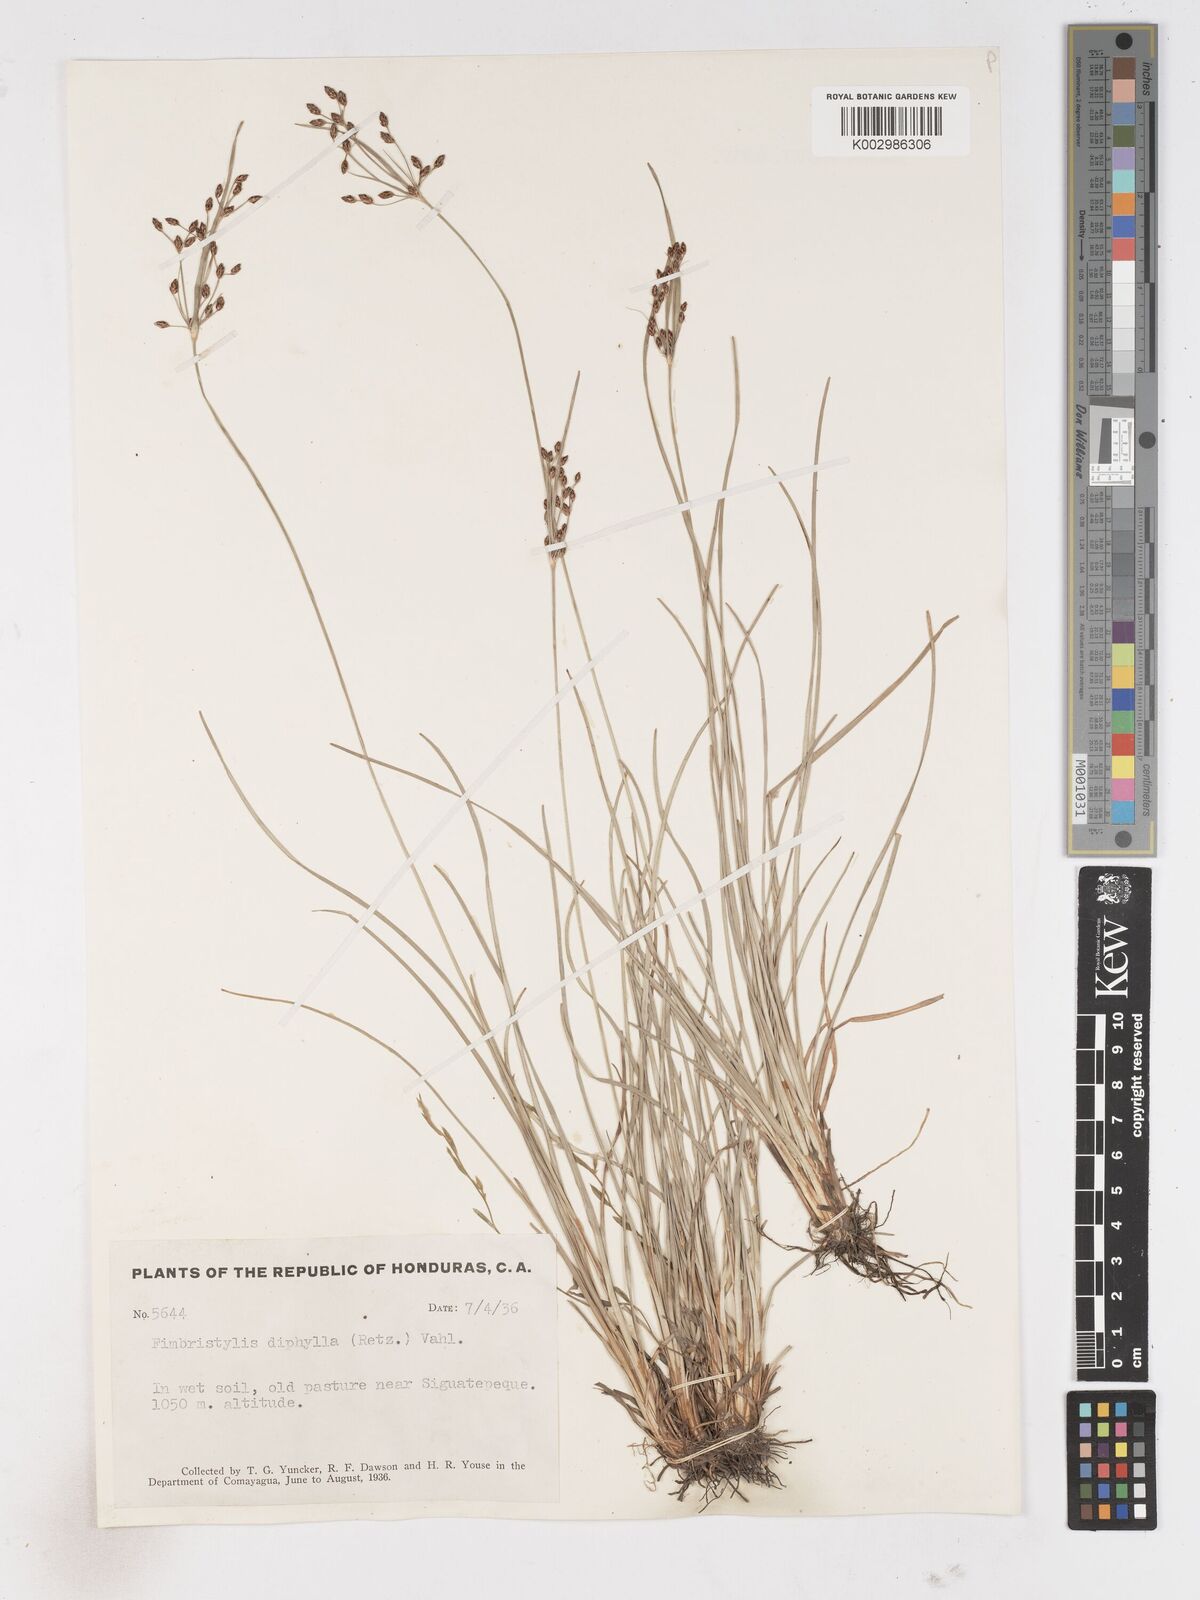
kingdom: Plantae
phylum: Tracheophyta
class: Liliopsida
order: Poales
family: Cyperaceae
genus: Fimbristylis
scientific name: Fimbristylis dichotoma
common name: Forked fimbry
